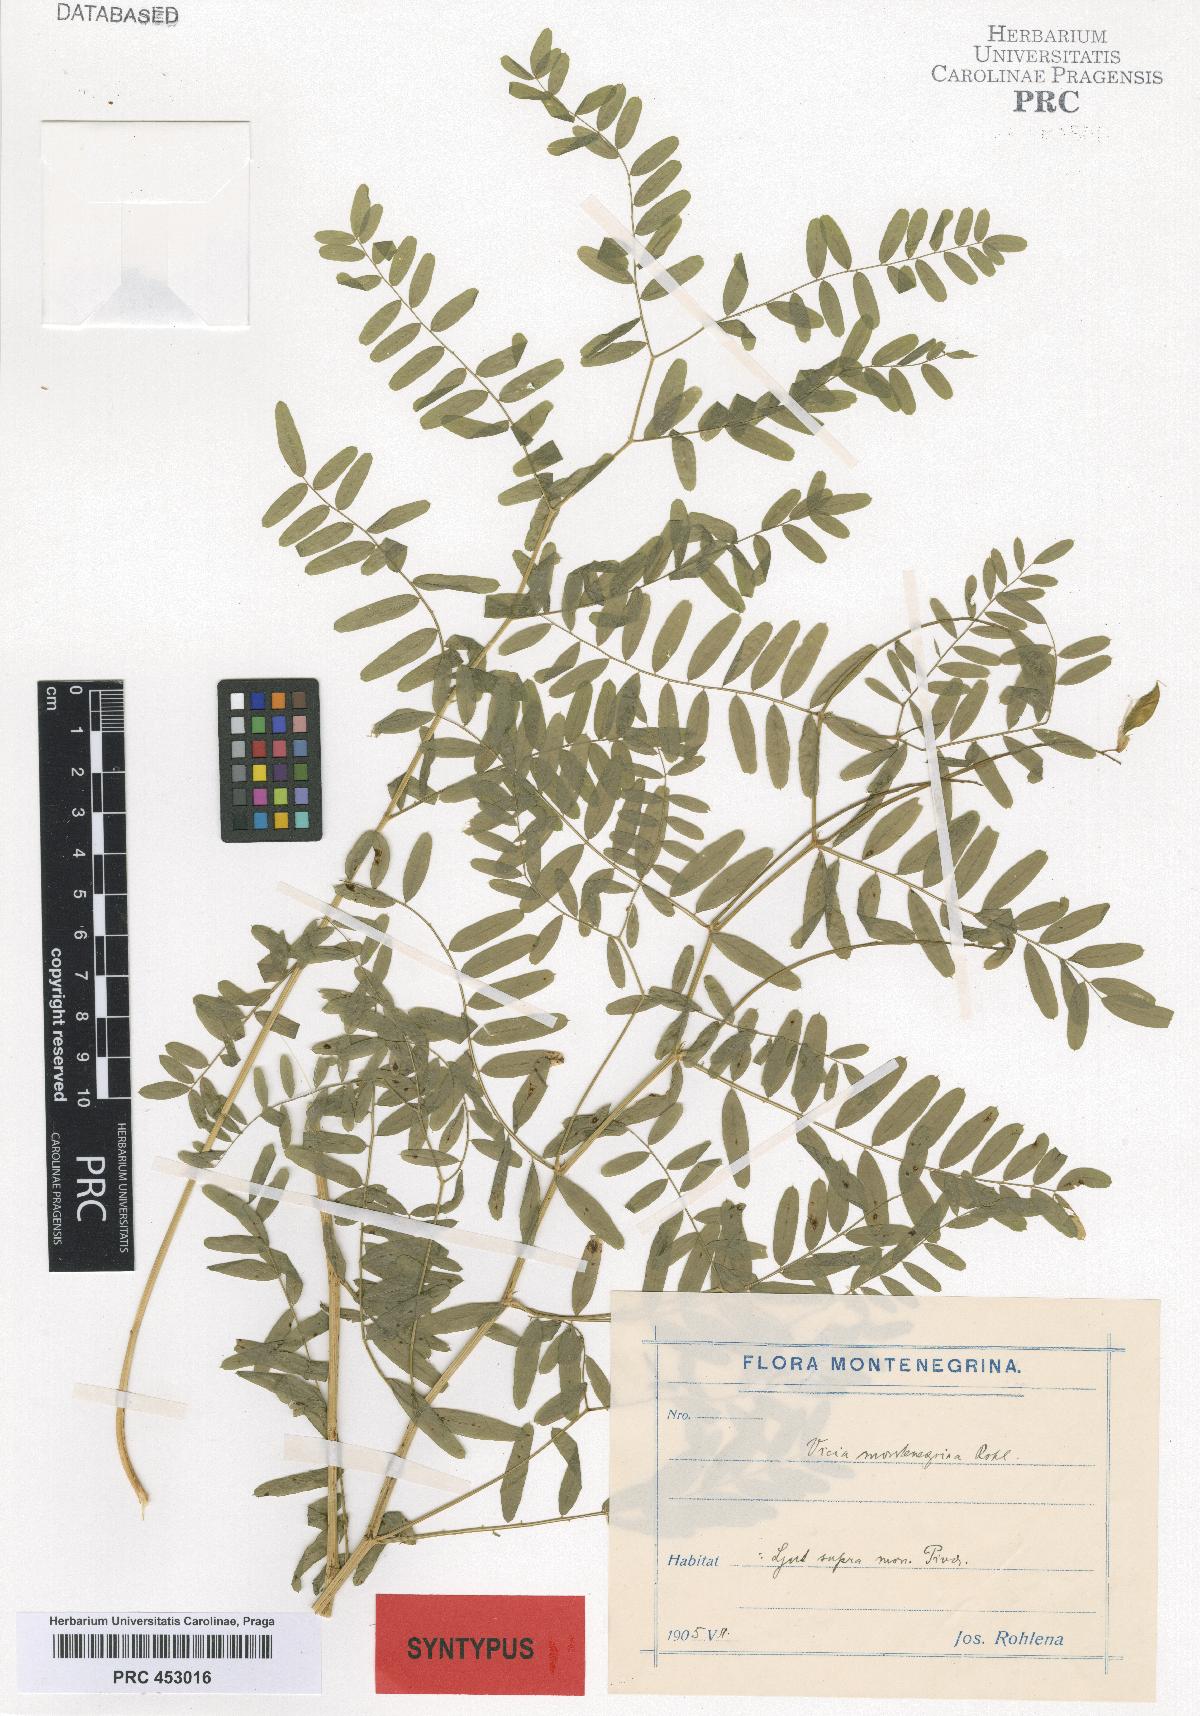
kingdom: Plantae
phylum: Tracheophyta
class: Magnoliopsida
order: Fabales
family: Fabaceae
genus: Vicia
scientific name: Vicia montenegrina
